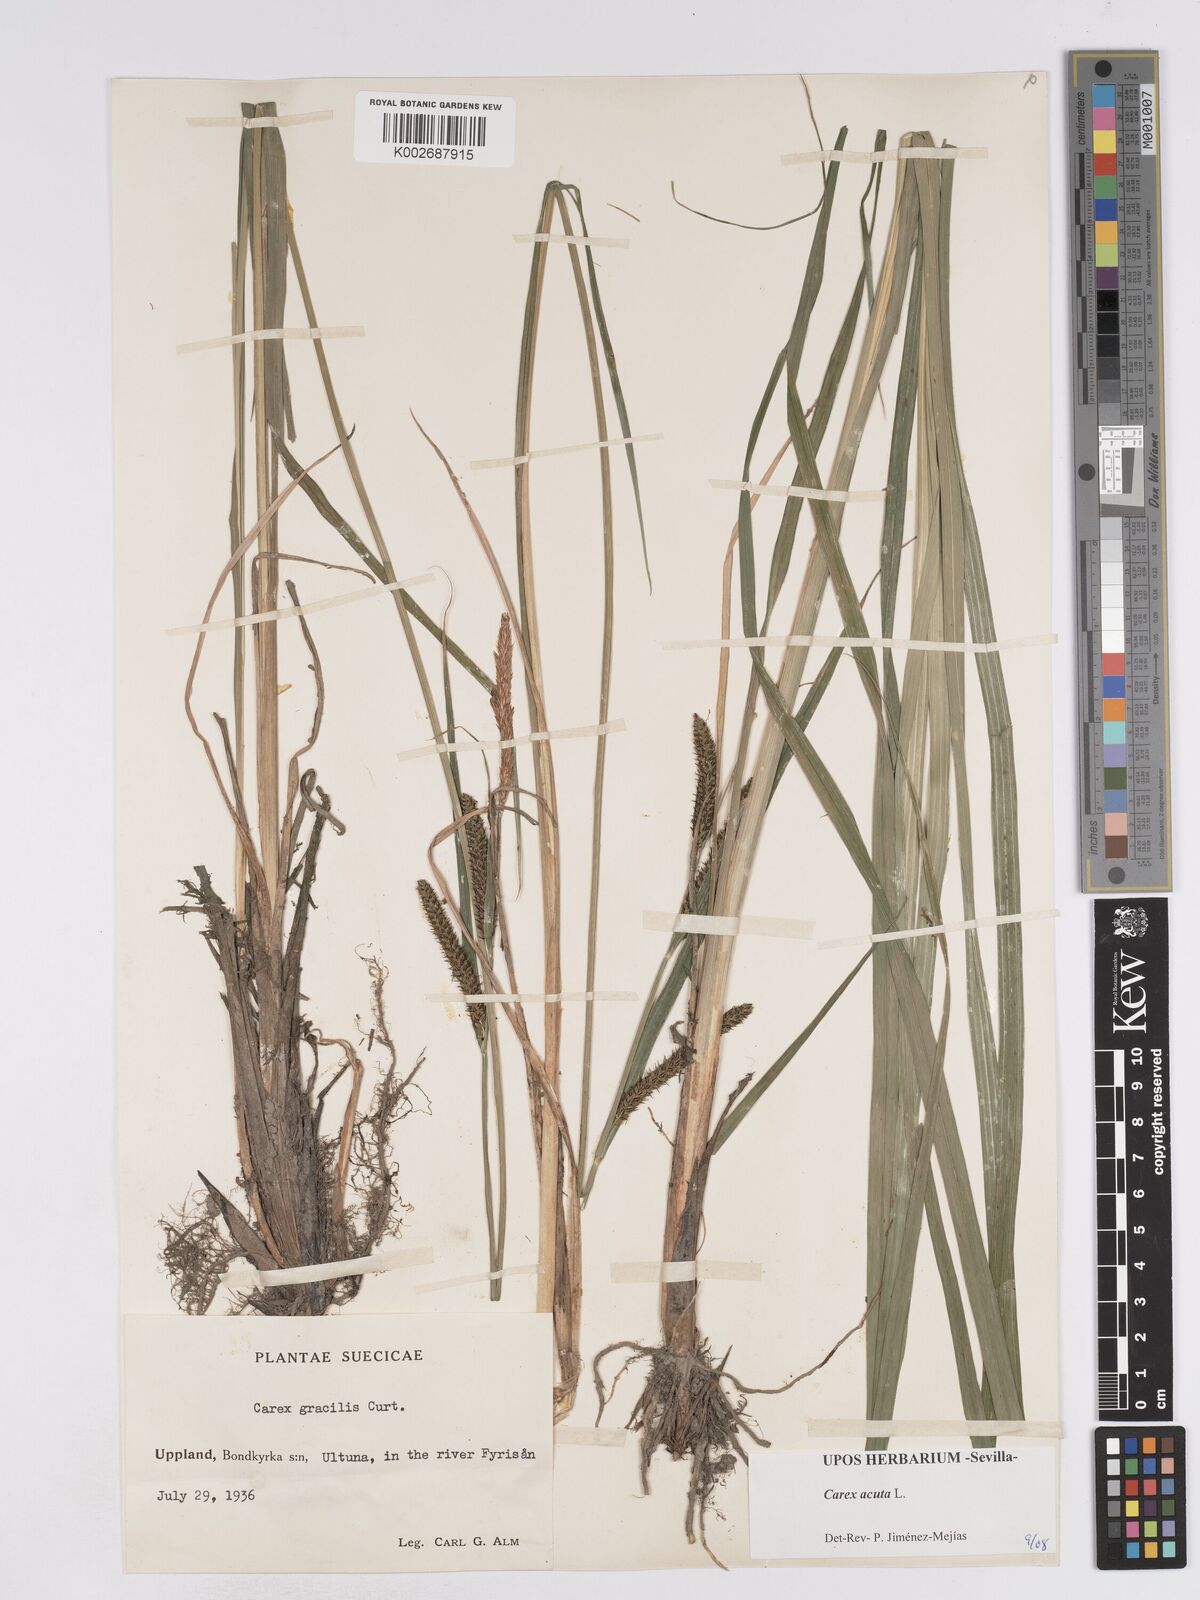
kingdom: Plantae
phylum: Tracheophyta
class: Liliopsida
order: Poales
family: Cyperaceae
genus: Carex
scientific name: Carex acuta
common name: Slender tufted-sedge
